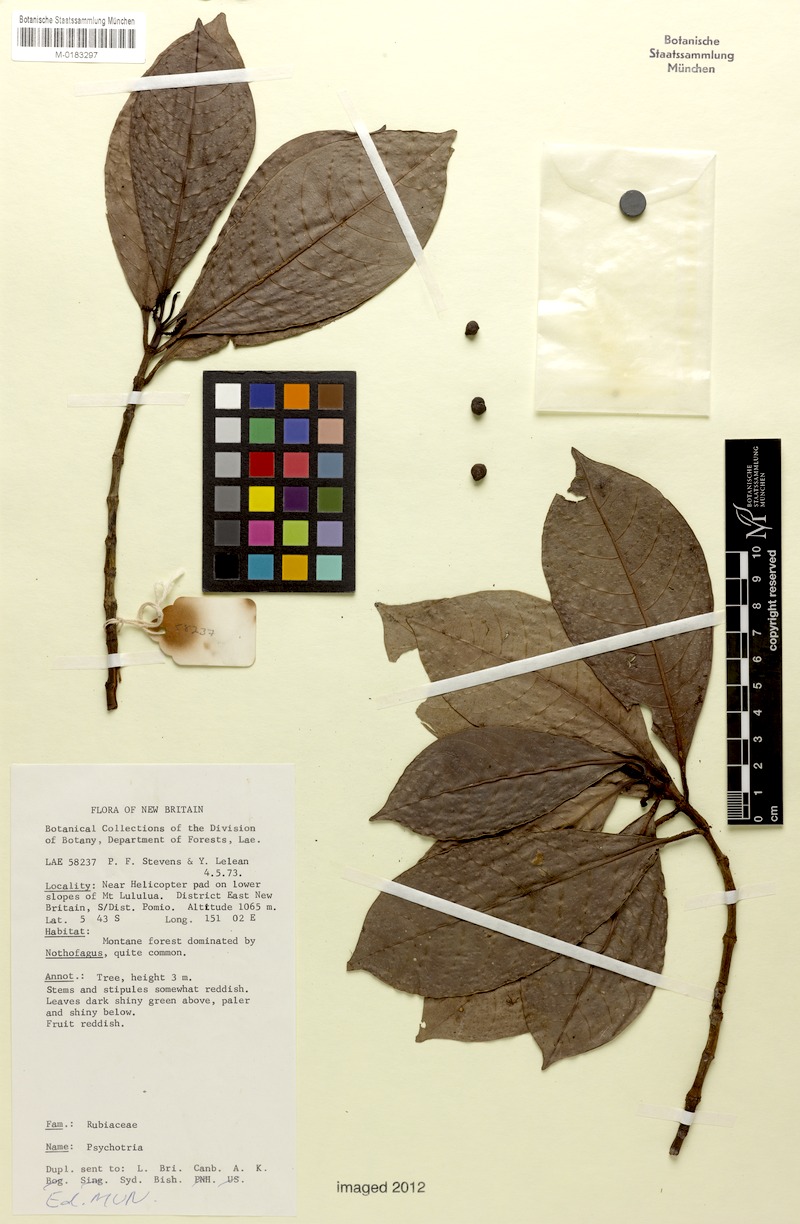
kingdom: Plantae
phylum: Tracheophyta
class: Magnoliopsida
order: Gentianales
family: Rubiaceae
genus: Psychotria
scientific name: Psychotria leleana
